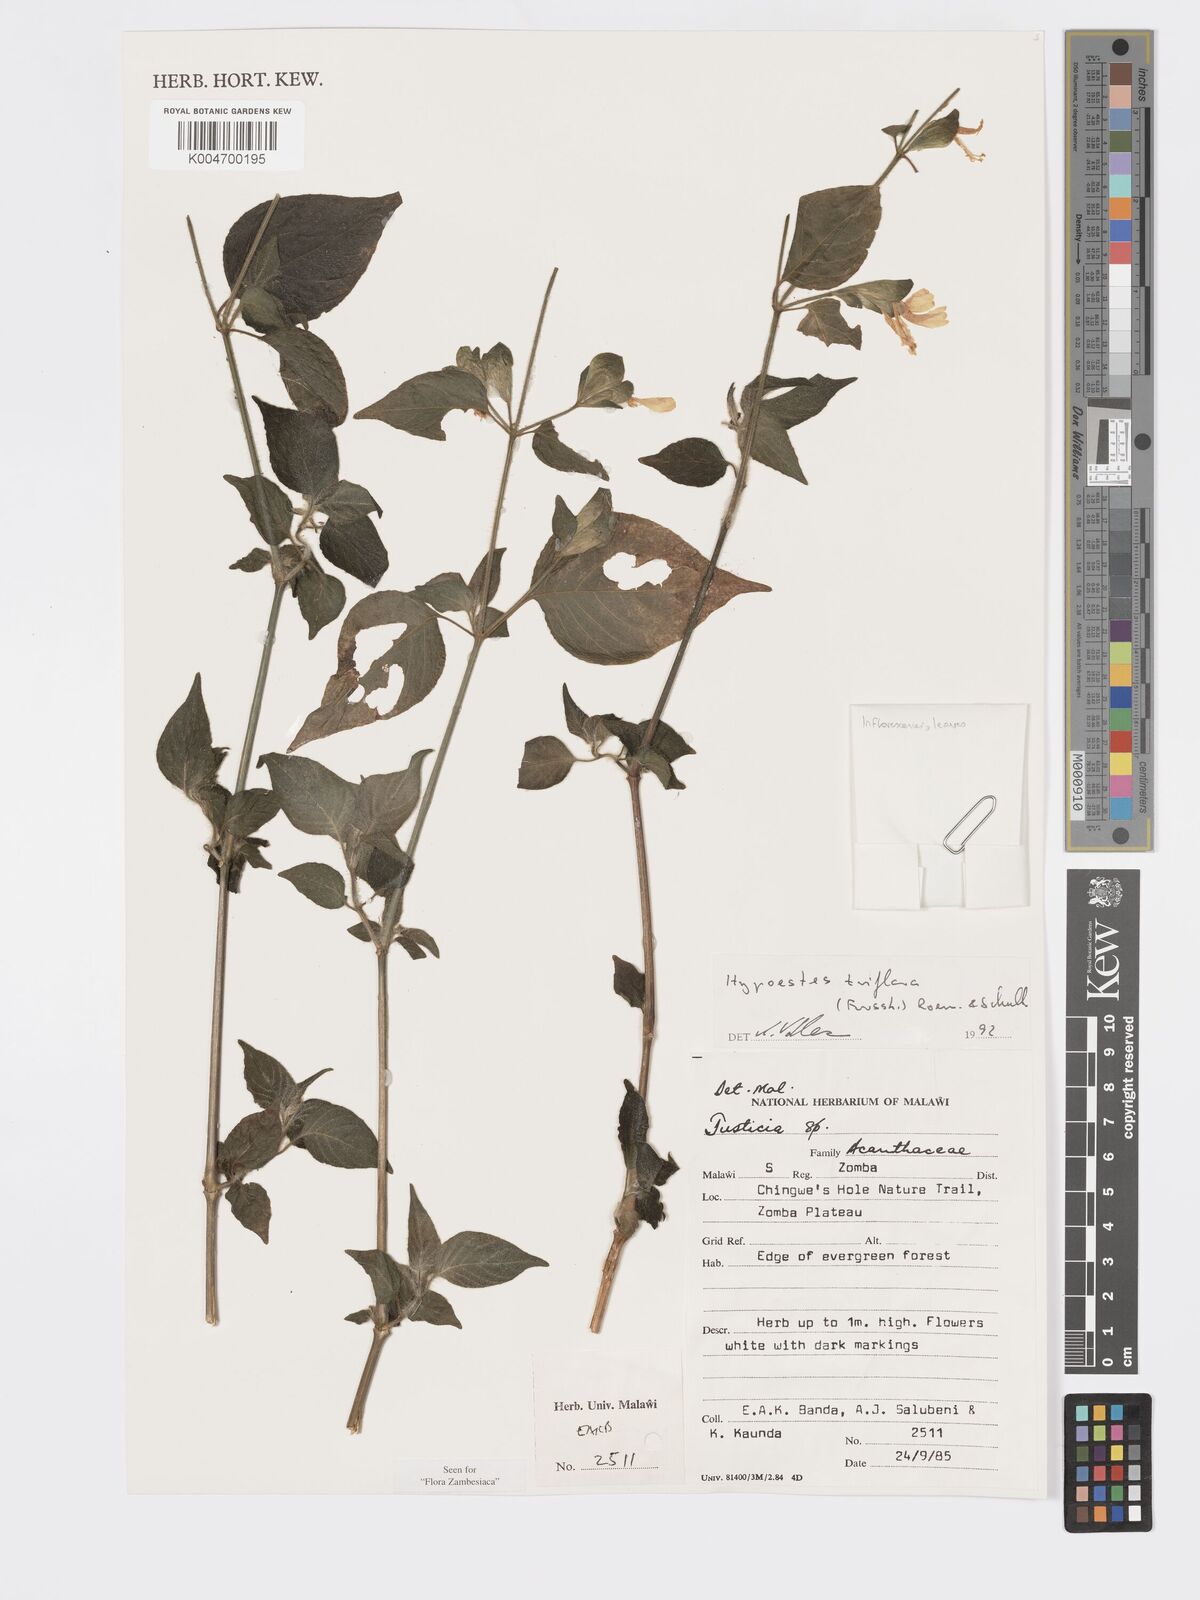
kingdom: Plantae
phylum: Tracheophyta
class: Magnoliopsida
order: Lamiales
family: Acanthaceae
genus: Hypoestes
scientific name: Hypoestes triflora
